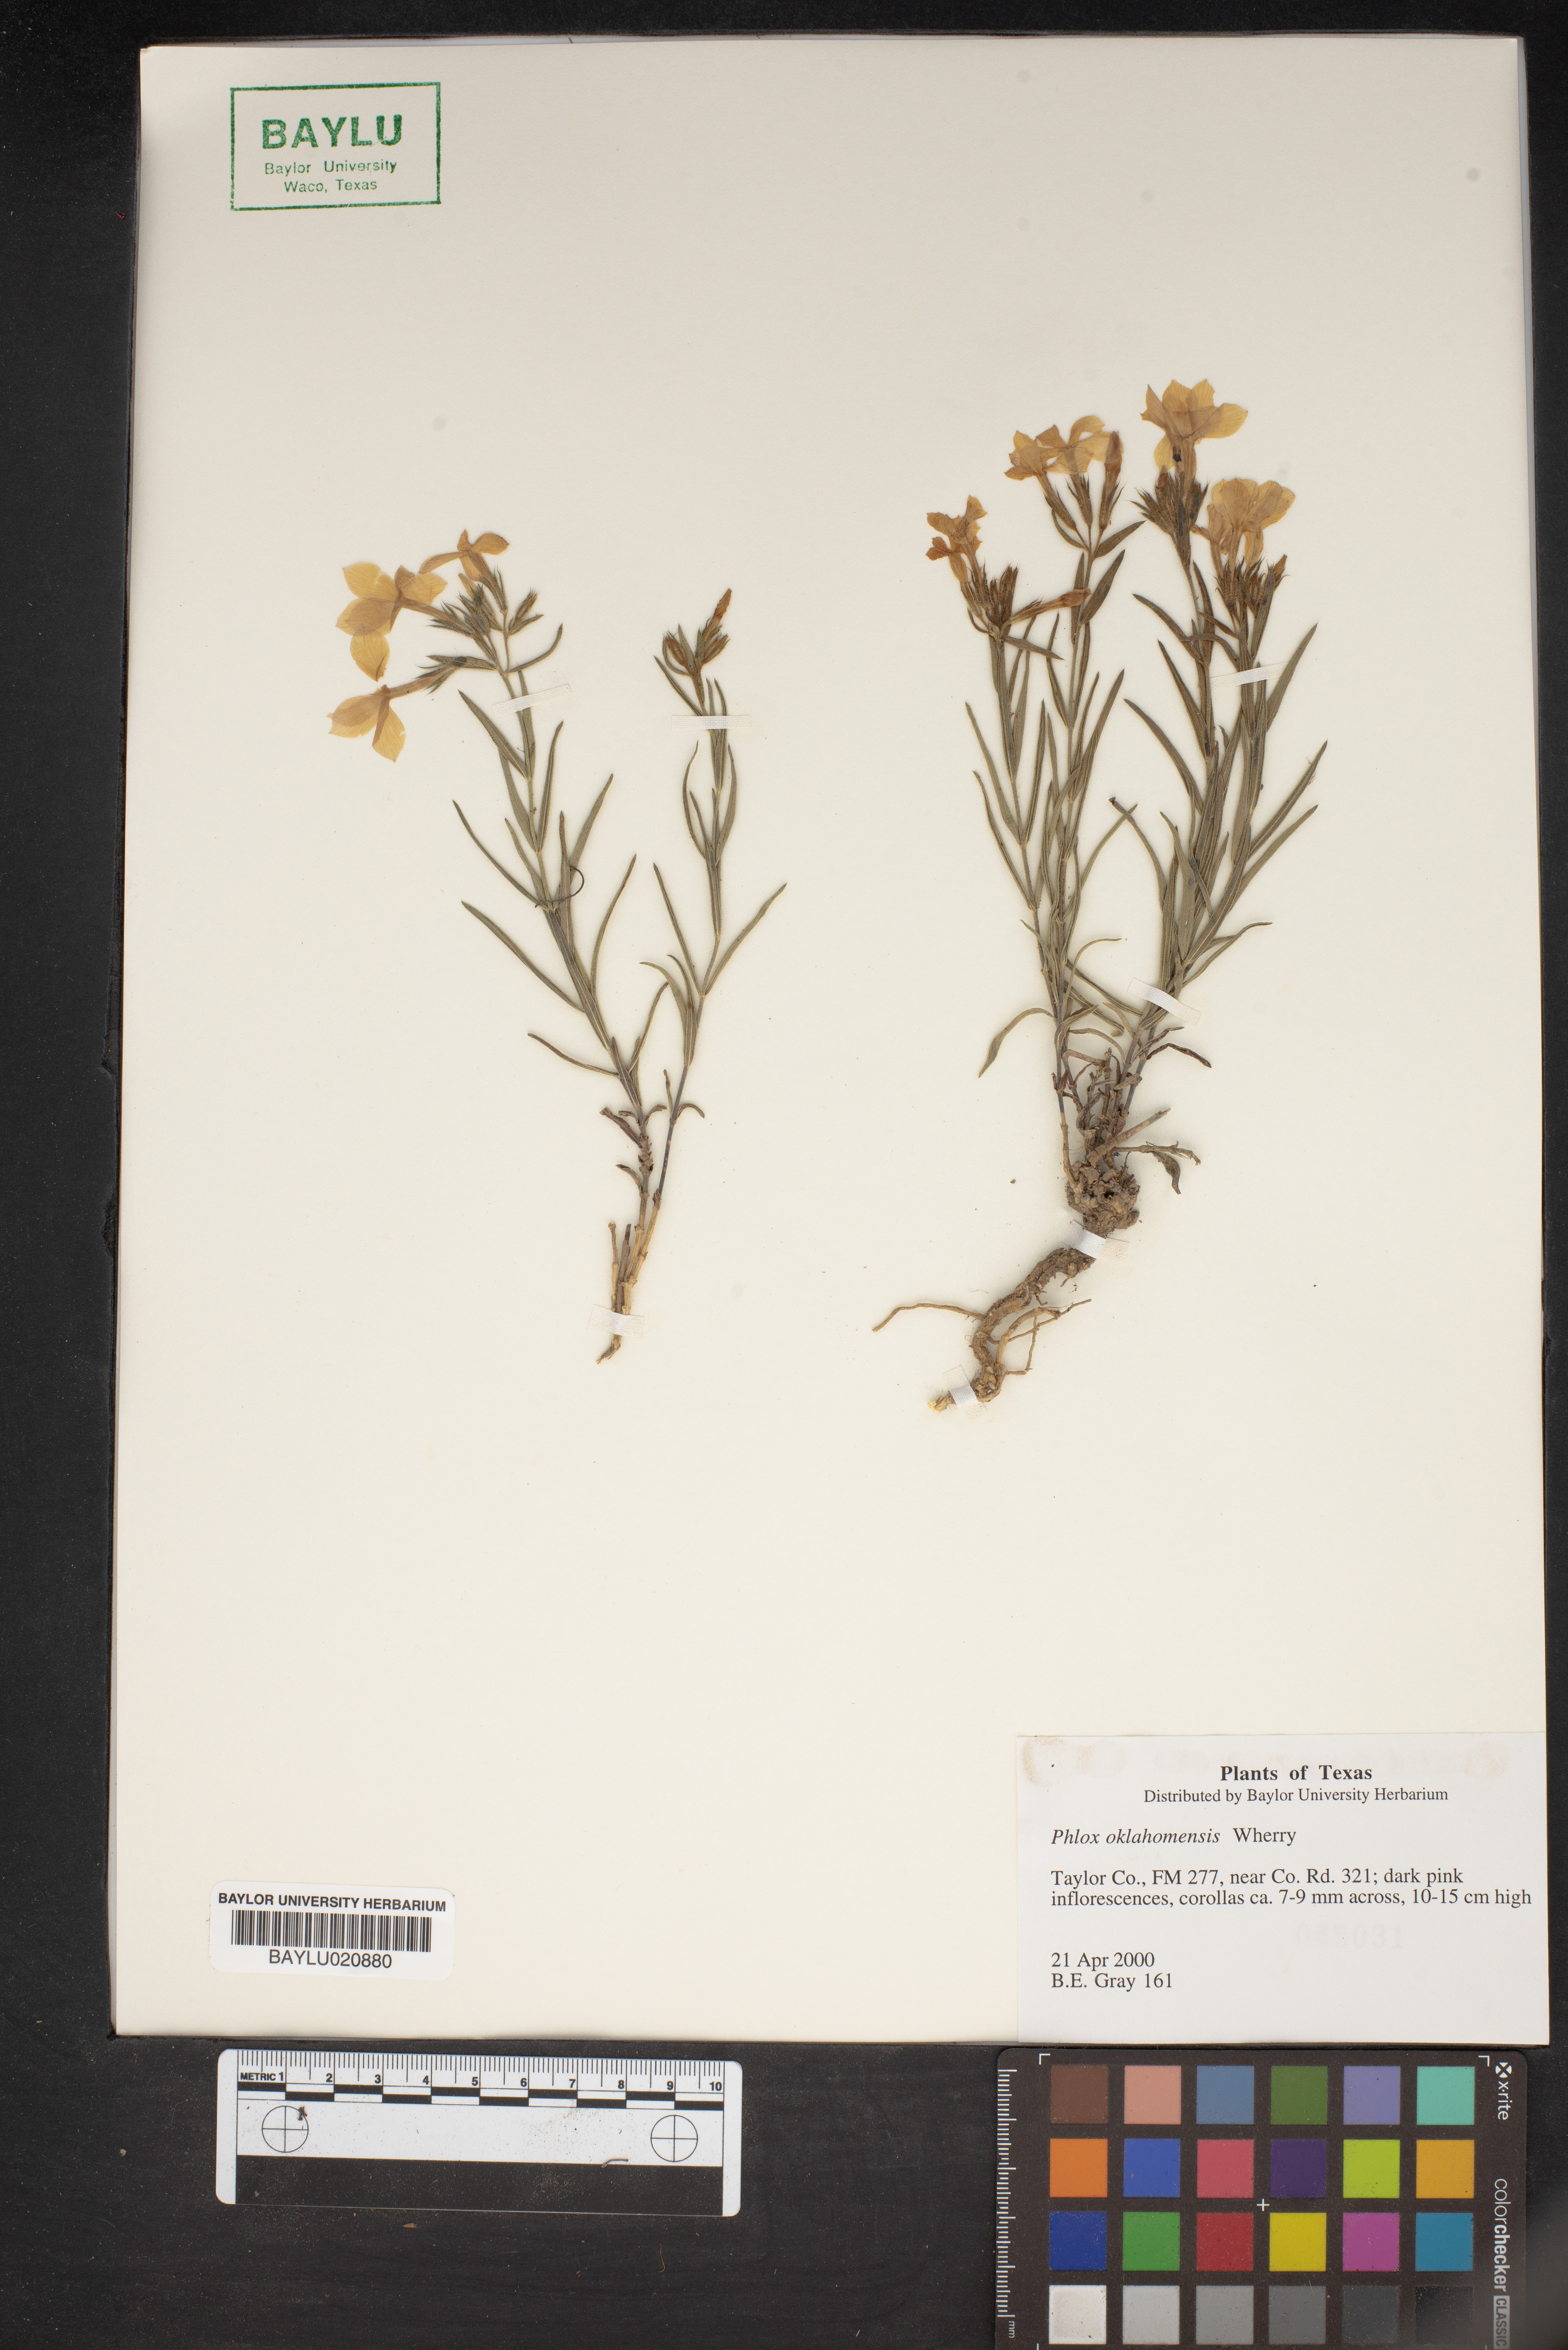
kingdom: Plantae
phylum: Tracheophyta
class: Magnoliopsida
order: Ericales
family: Polemoniaceae
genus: Phlox
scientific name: Phlox oklahomensis
